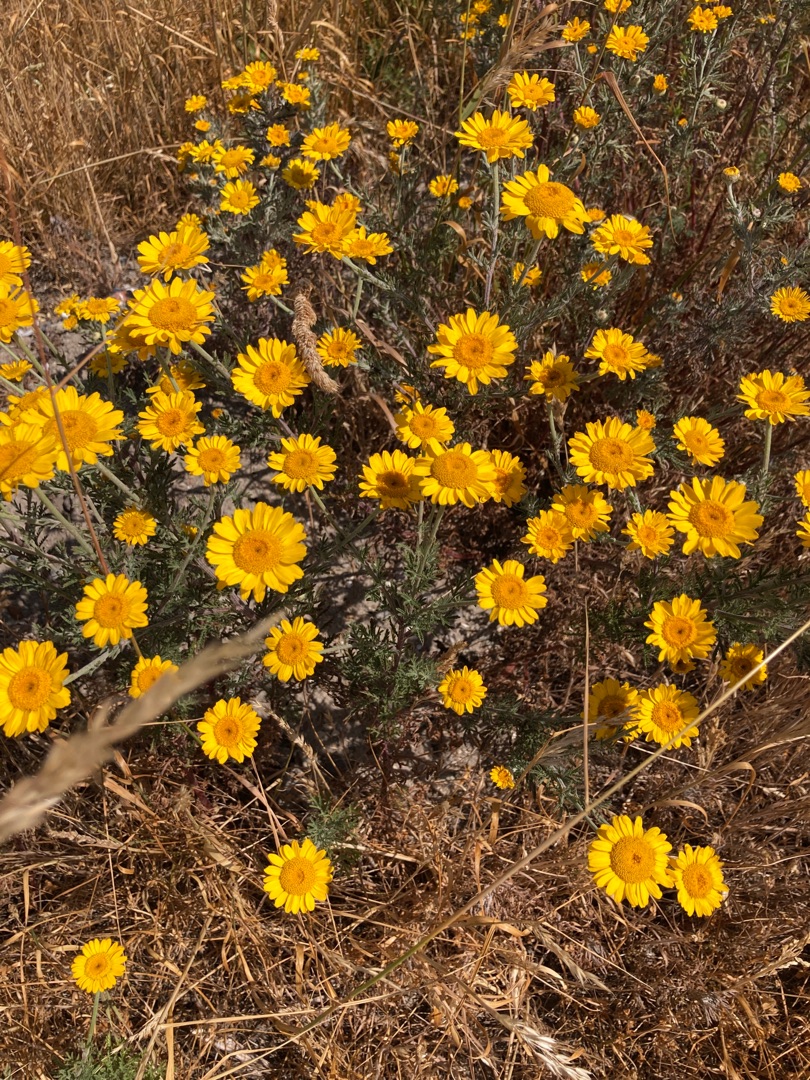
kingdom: Plantae
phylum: Tracheophyta
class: Magnoliopsida
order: Asterales
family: Asteraceae
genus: Cota
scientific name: Cota tinctoria
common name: Farve-gåseurt
